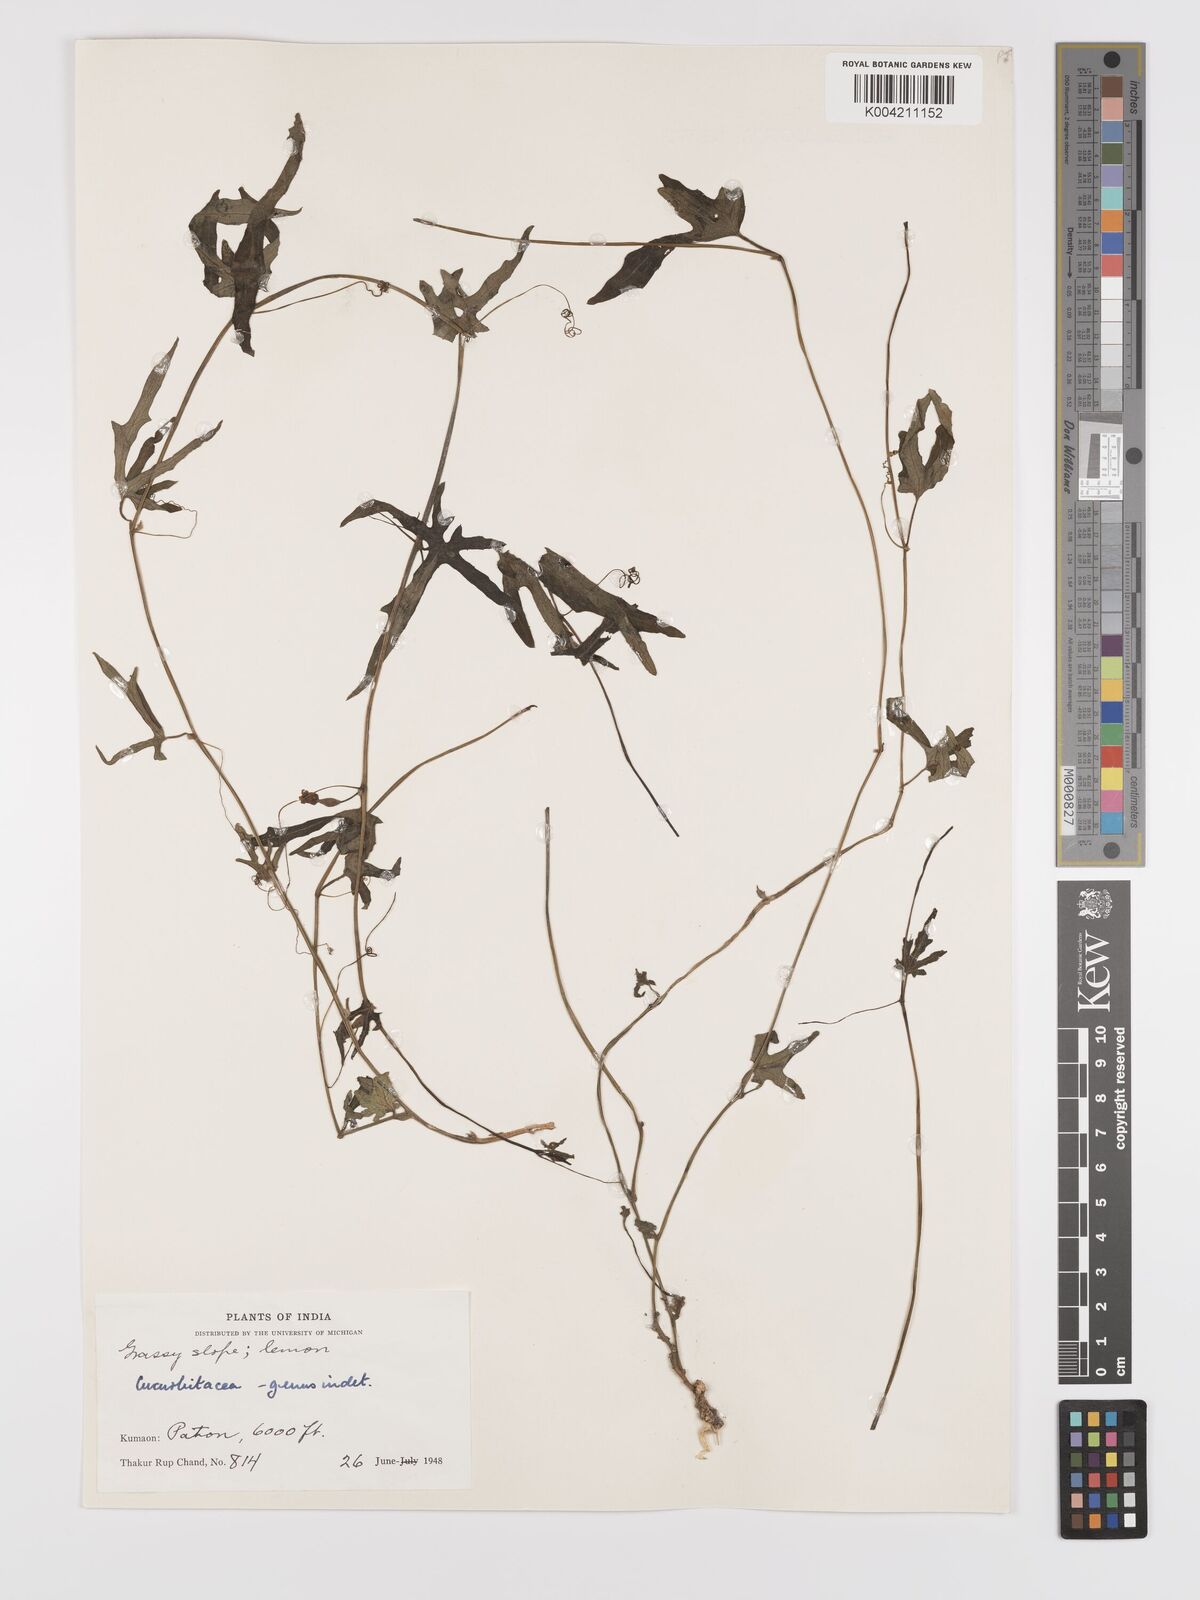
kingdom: Plantae
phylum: Tracheophyta
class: Magnoliopsida
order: Cucurbitales
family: Cucurbitaceae
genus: Solena
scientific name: Solena
